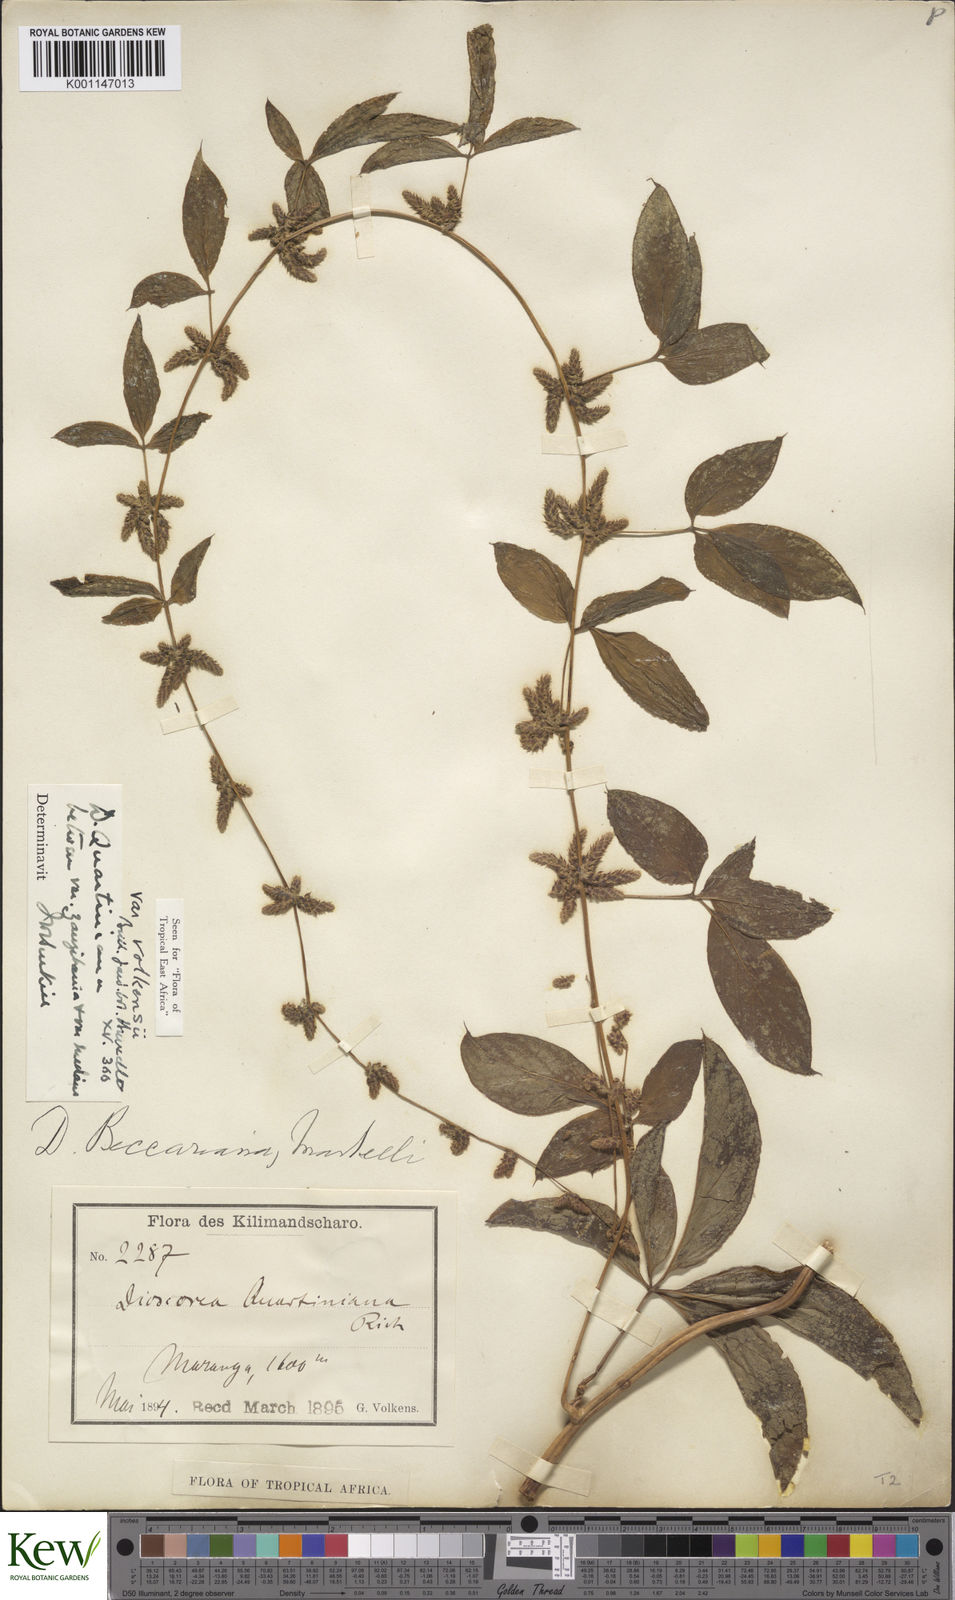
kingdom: Plantae
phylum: Tracheophyta
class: Liliopsida
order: Dioscoreales
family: Dioscoreaceae
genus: Dioscorea
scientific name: Dioscorea quartiniana
